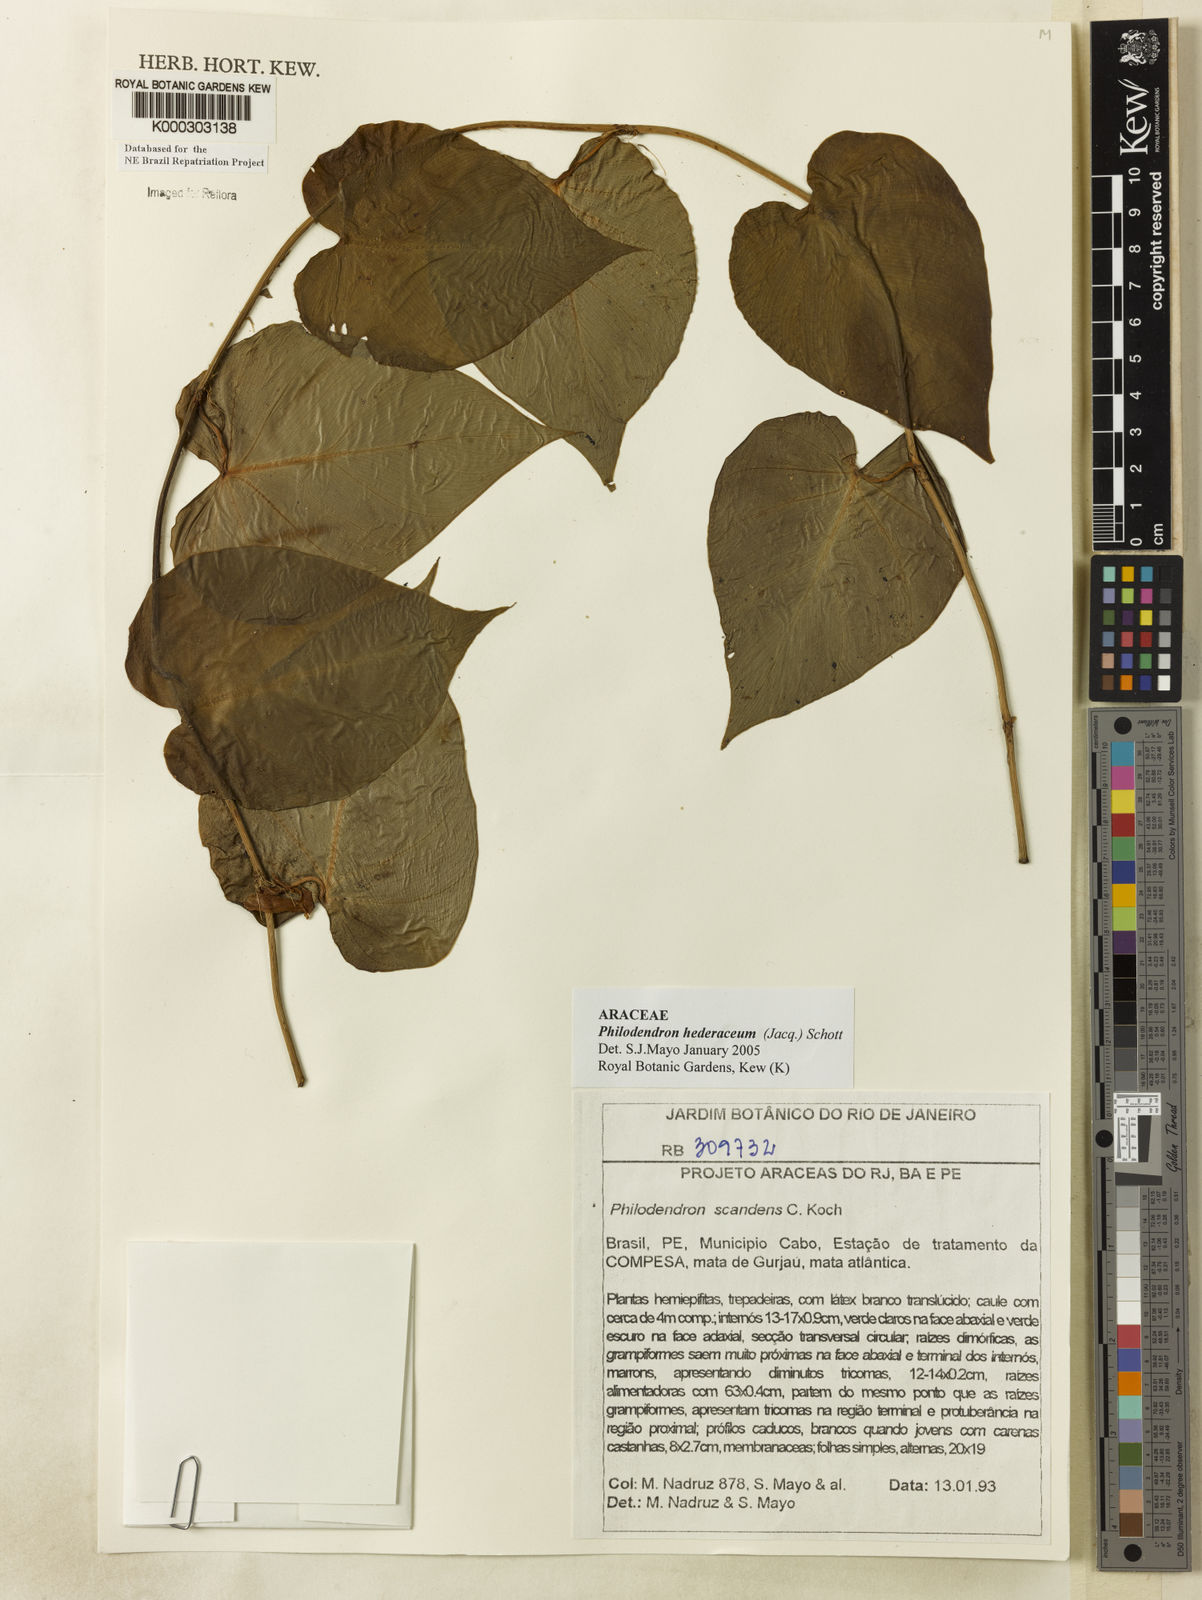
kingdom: Plantae
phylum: Tracheophyta
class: Liliopsida
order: Alismatales
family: Araceae
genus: Philodendron
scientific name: Philodendron hederaceum
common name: Vilevine
